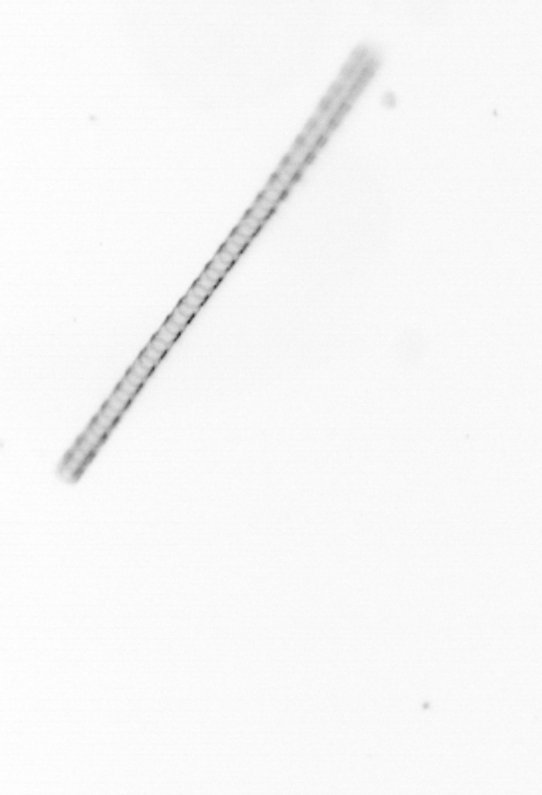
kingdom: Chromista
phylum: Ochrophyta
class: Bacillariophyceae
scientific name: Bacillariophyceae
